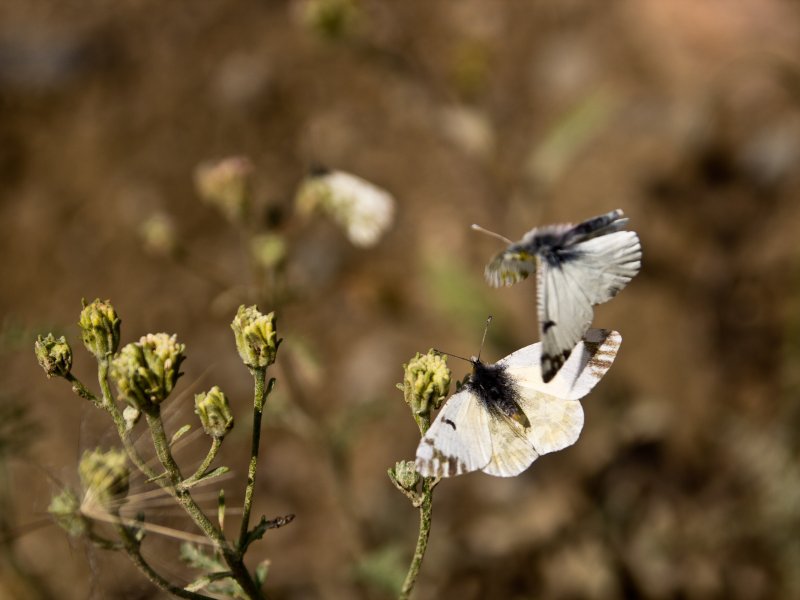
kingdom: Animalia
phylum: Arthropoda
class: Insecta
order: Lepidoptera
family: Pieridae
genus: Euchloe
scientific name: Euchloe ausonides
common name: Large Marble
